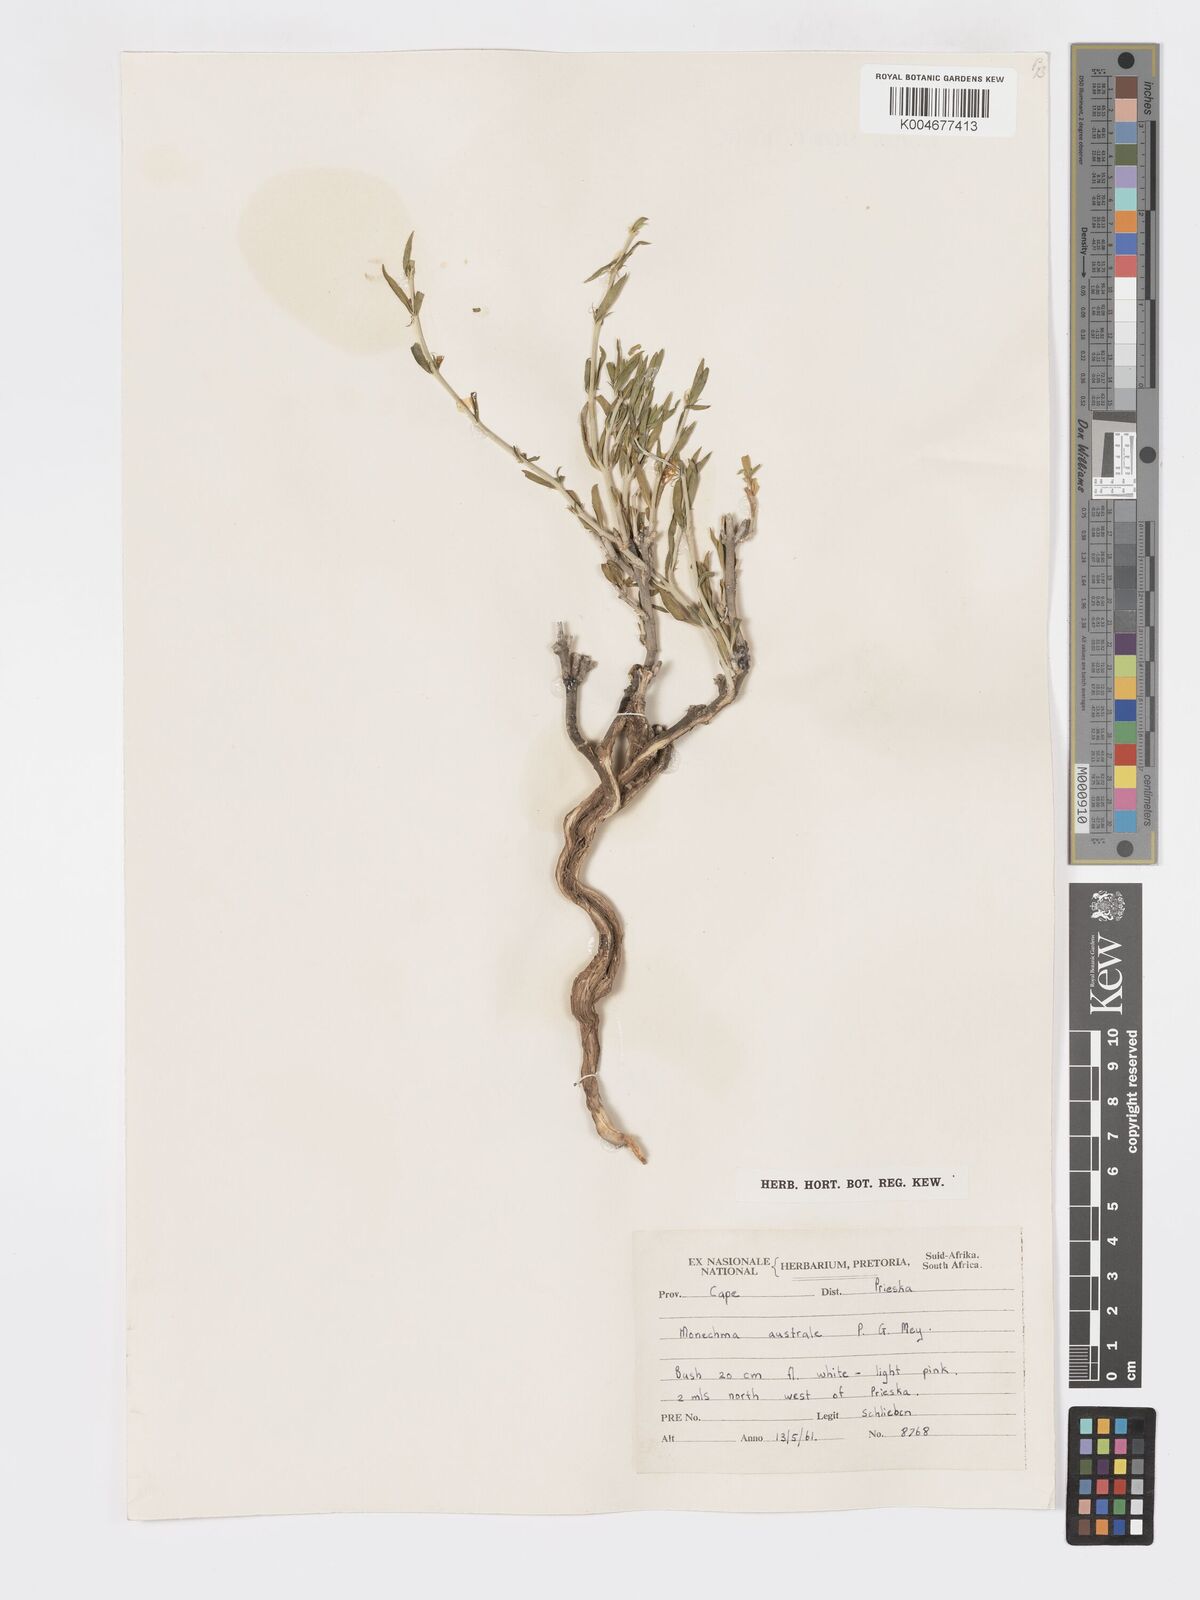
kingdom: Plantae
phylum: Tracheophyta
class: Magnoliopsida
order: Lamiales
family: Acanthaceae
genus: Pogonospermum
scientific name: Pogonospermum
